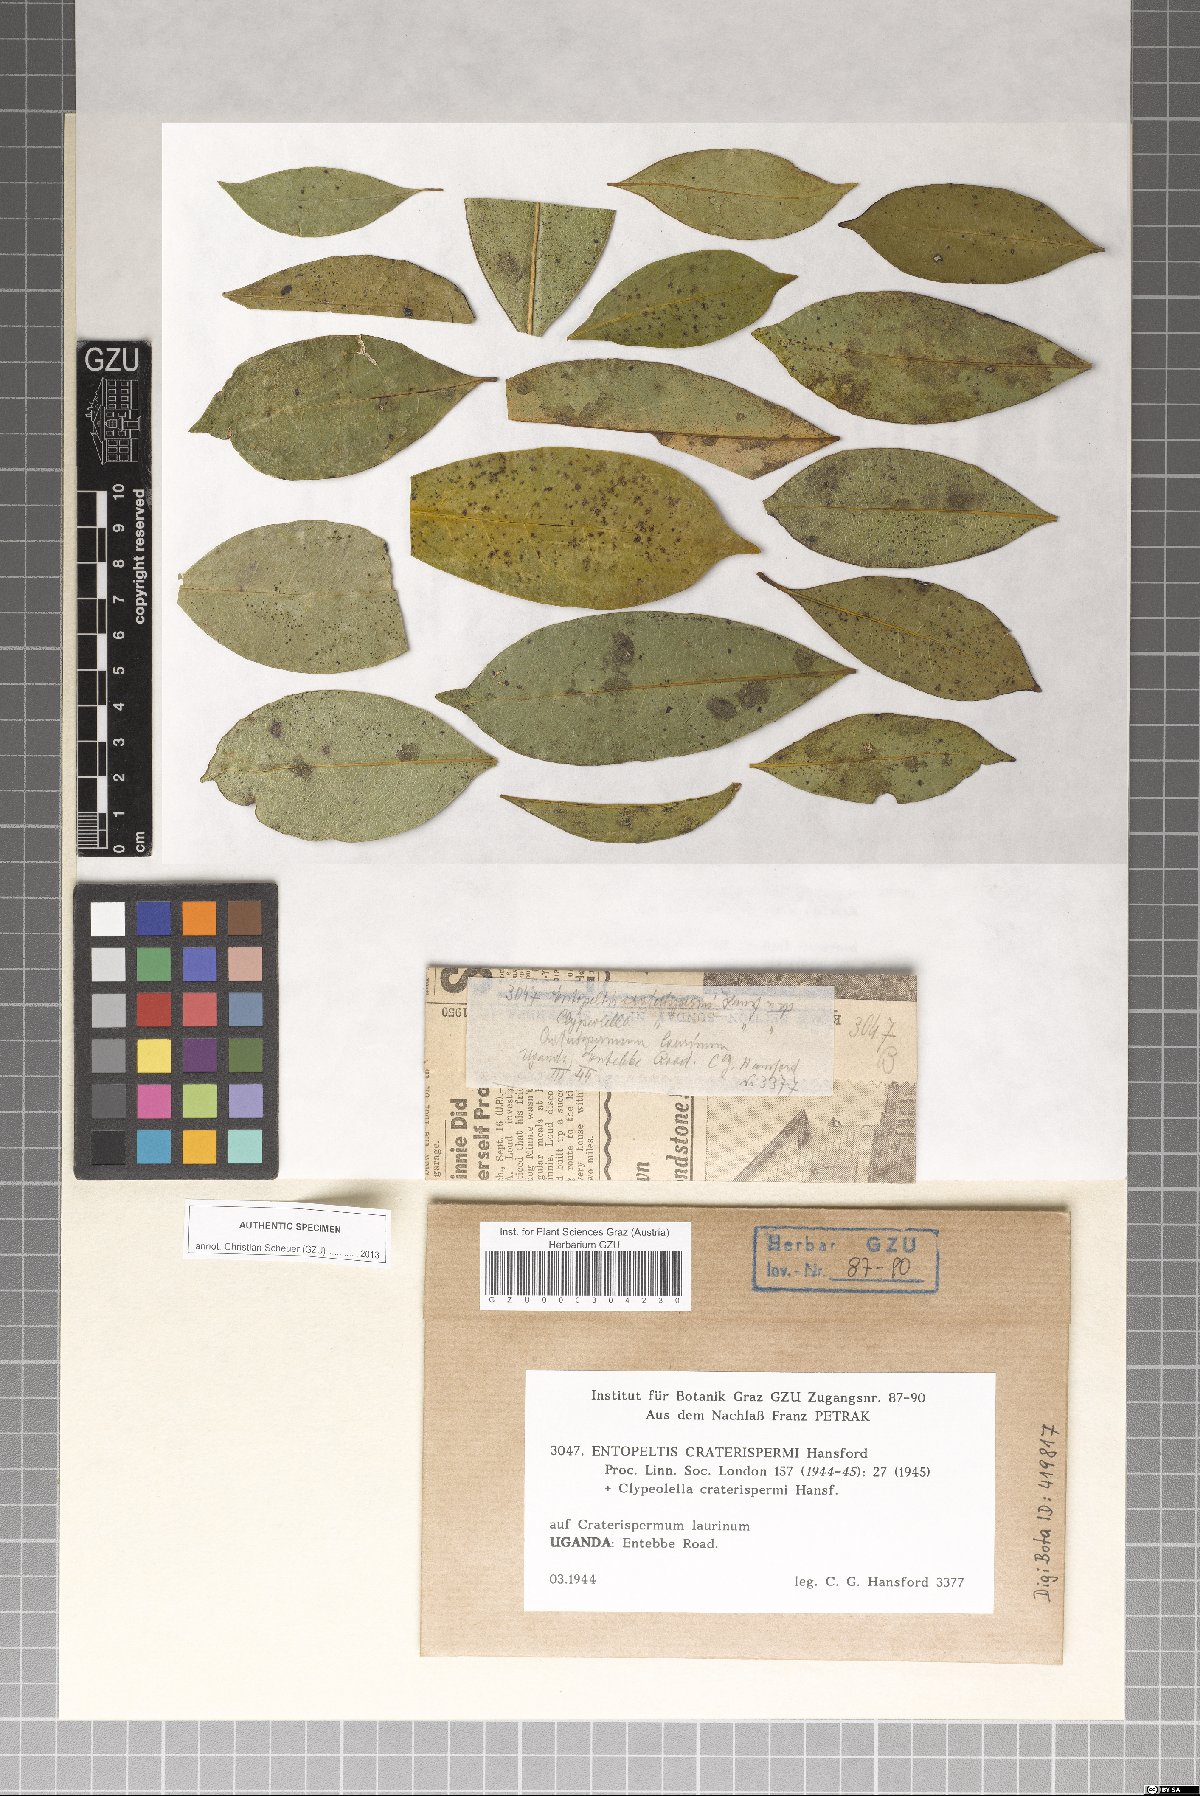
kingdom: Fungi
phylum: Ascomycota
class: Dothideomycetes
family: Vizellaceae
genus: Entopeltis
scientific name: Entopeltis craterispermi
